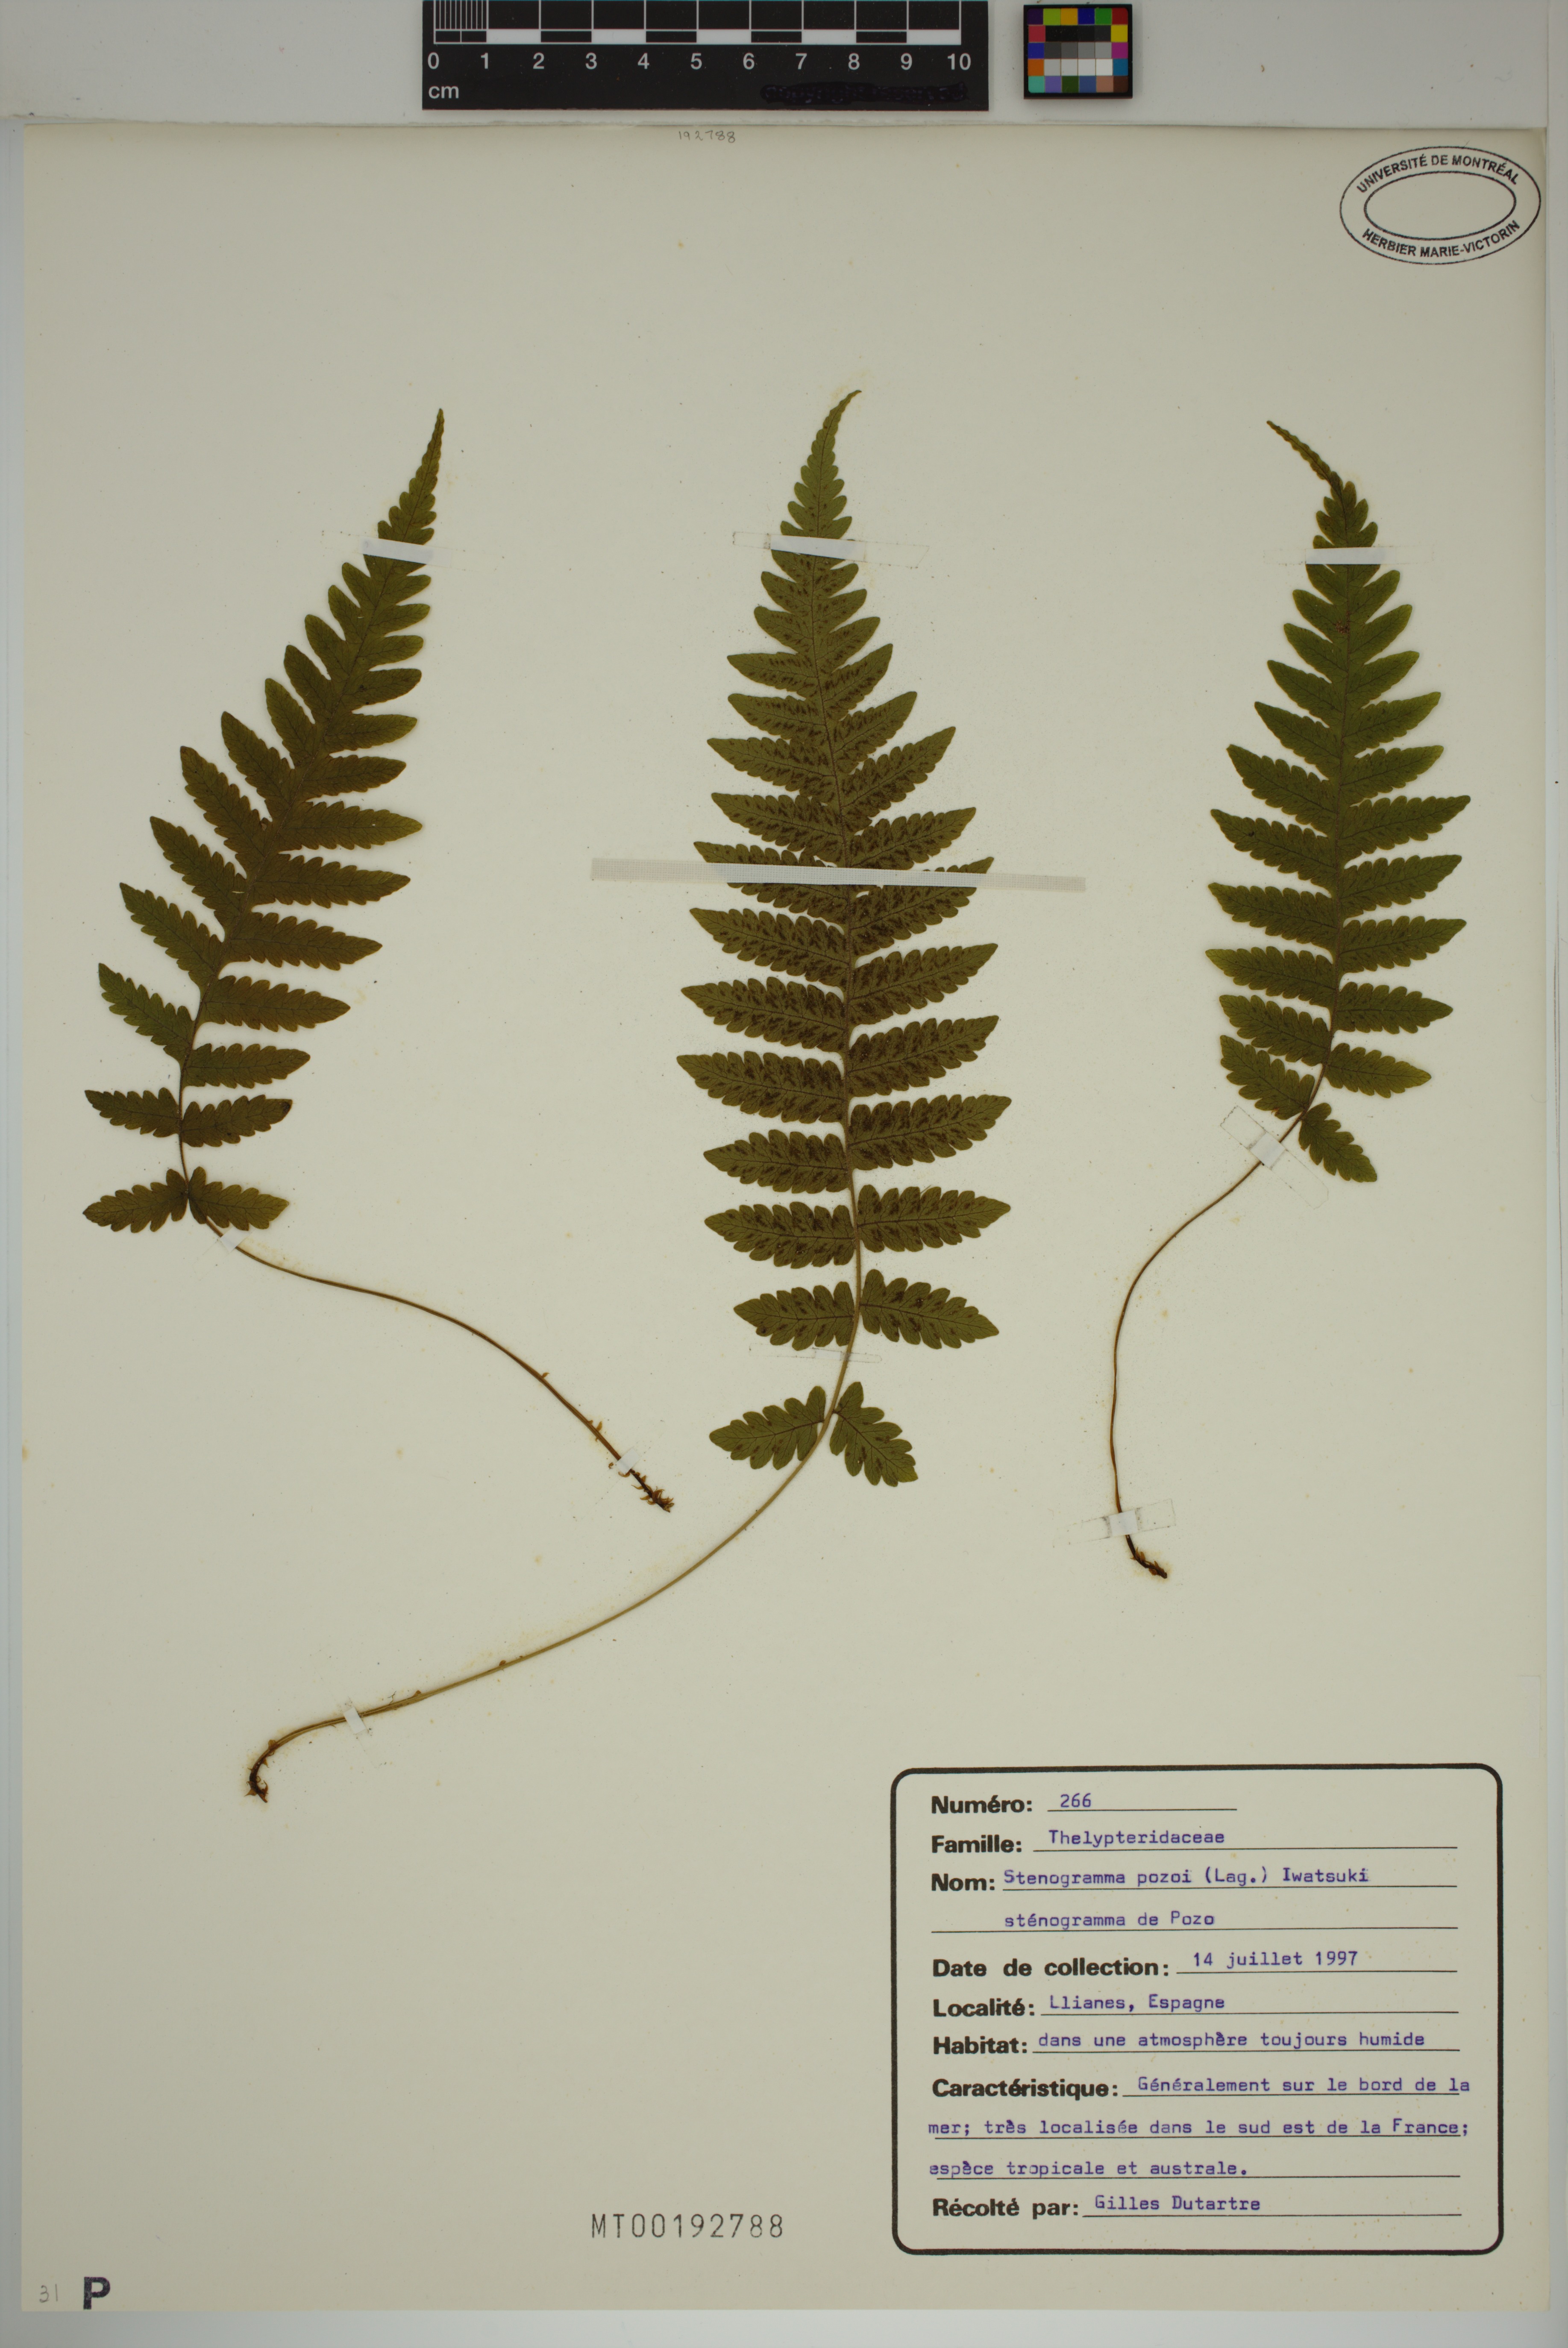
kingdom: Plantae
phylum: Tracheophyta
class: Polypodiopsida
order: Polypodiales
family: Thelypteridaceae
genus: Leptogramma
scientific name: Leptogramma pozoi
